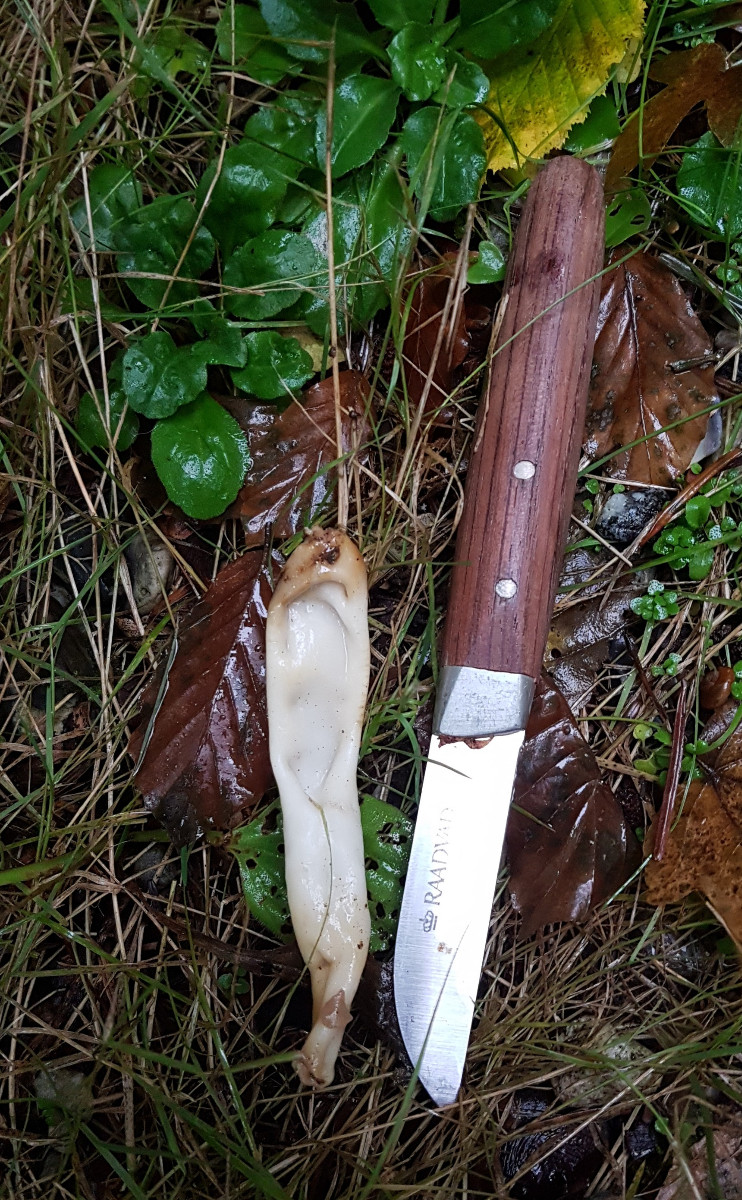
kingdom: Fungi
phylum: Ascomycota
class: Pezizomycetes
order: Pezizales
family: Helvellaceae
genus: Helvella
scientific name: Helvella
